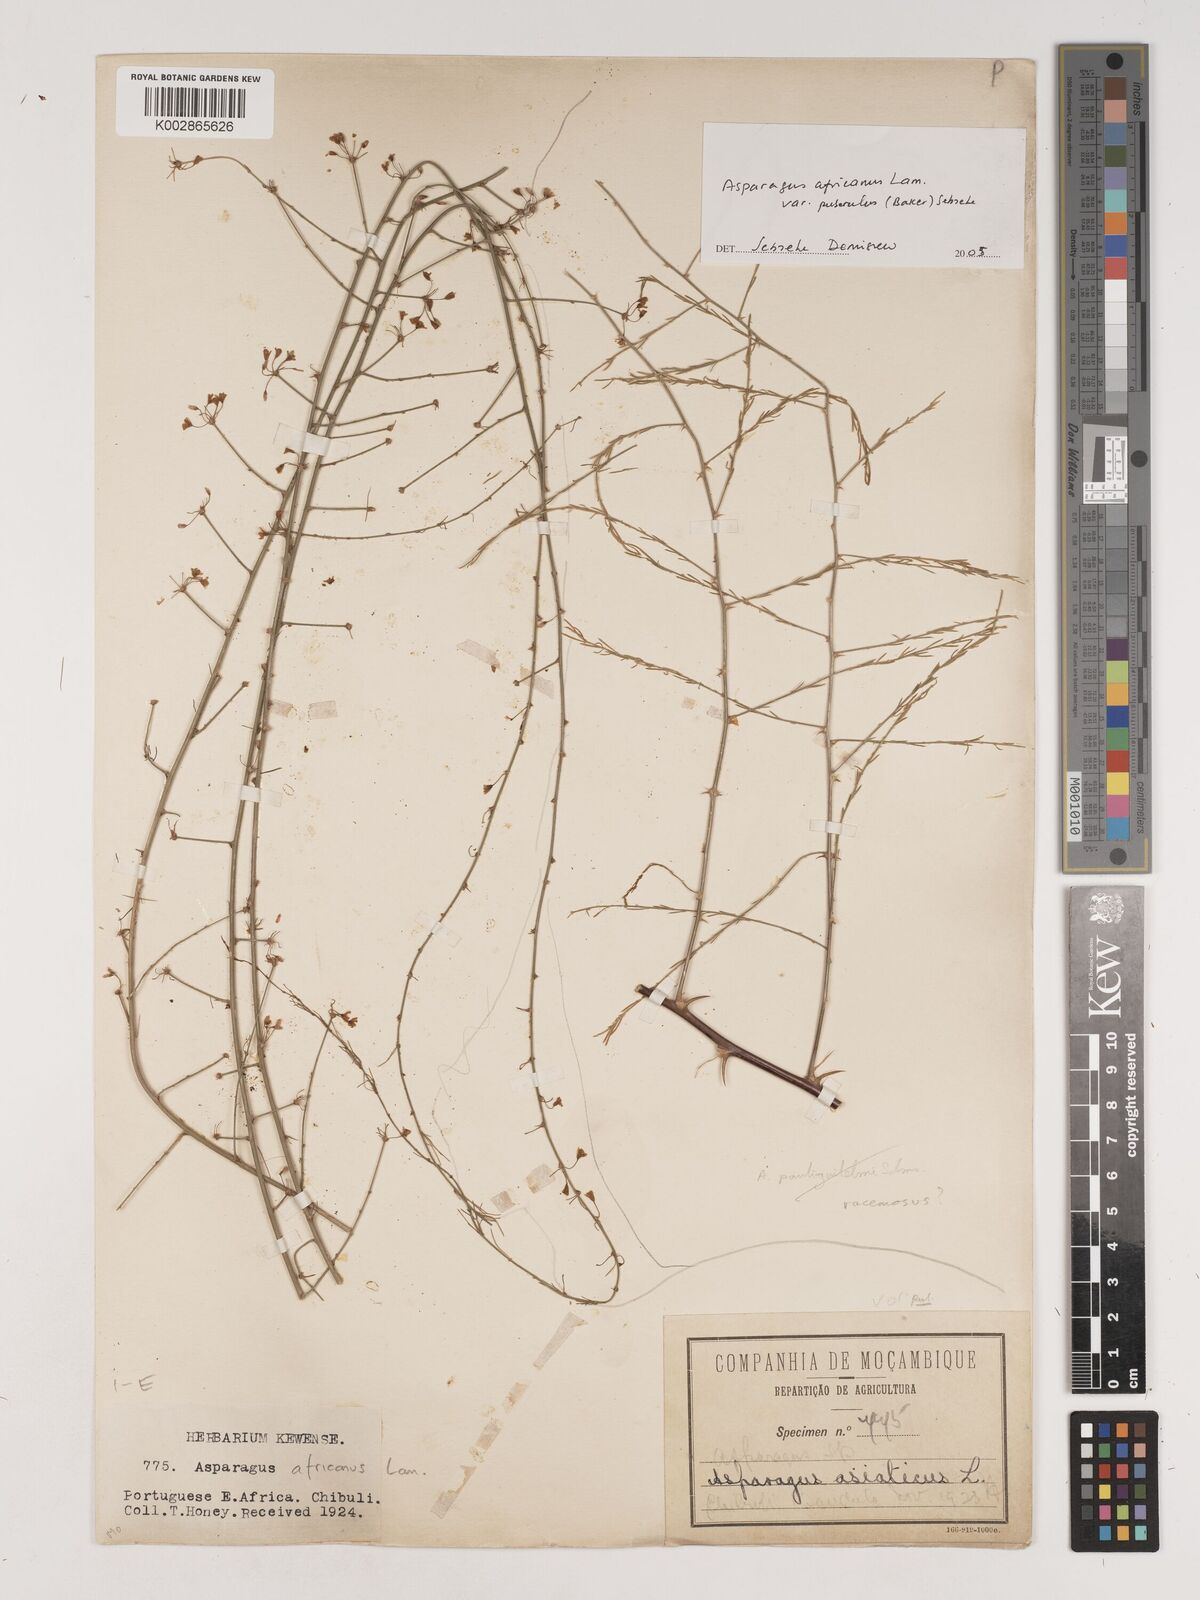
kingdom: Plantae
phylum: Tracheophyta
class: Liliopsida
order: Asparagales
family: Asparagaceae
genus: Asparagus
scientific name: Asparagus africanus
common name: Asparagus-fern
